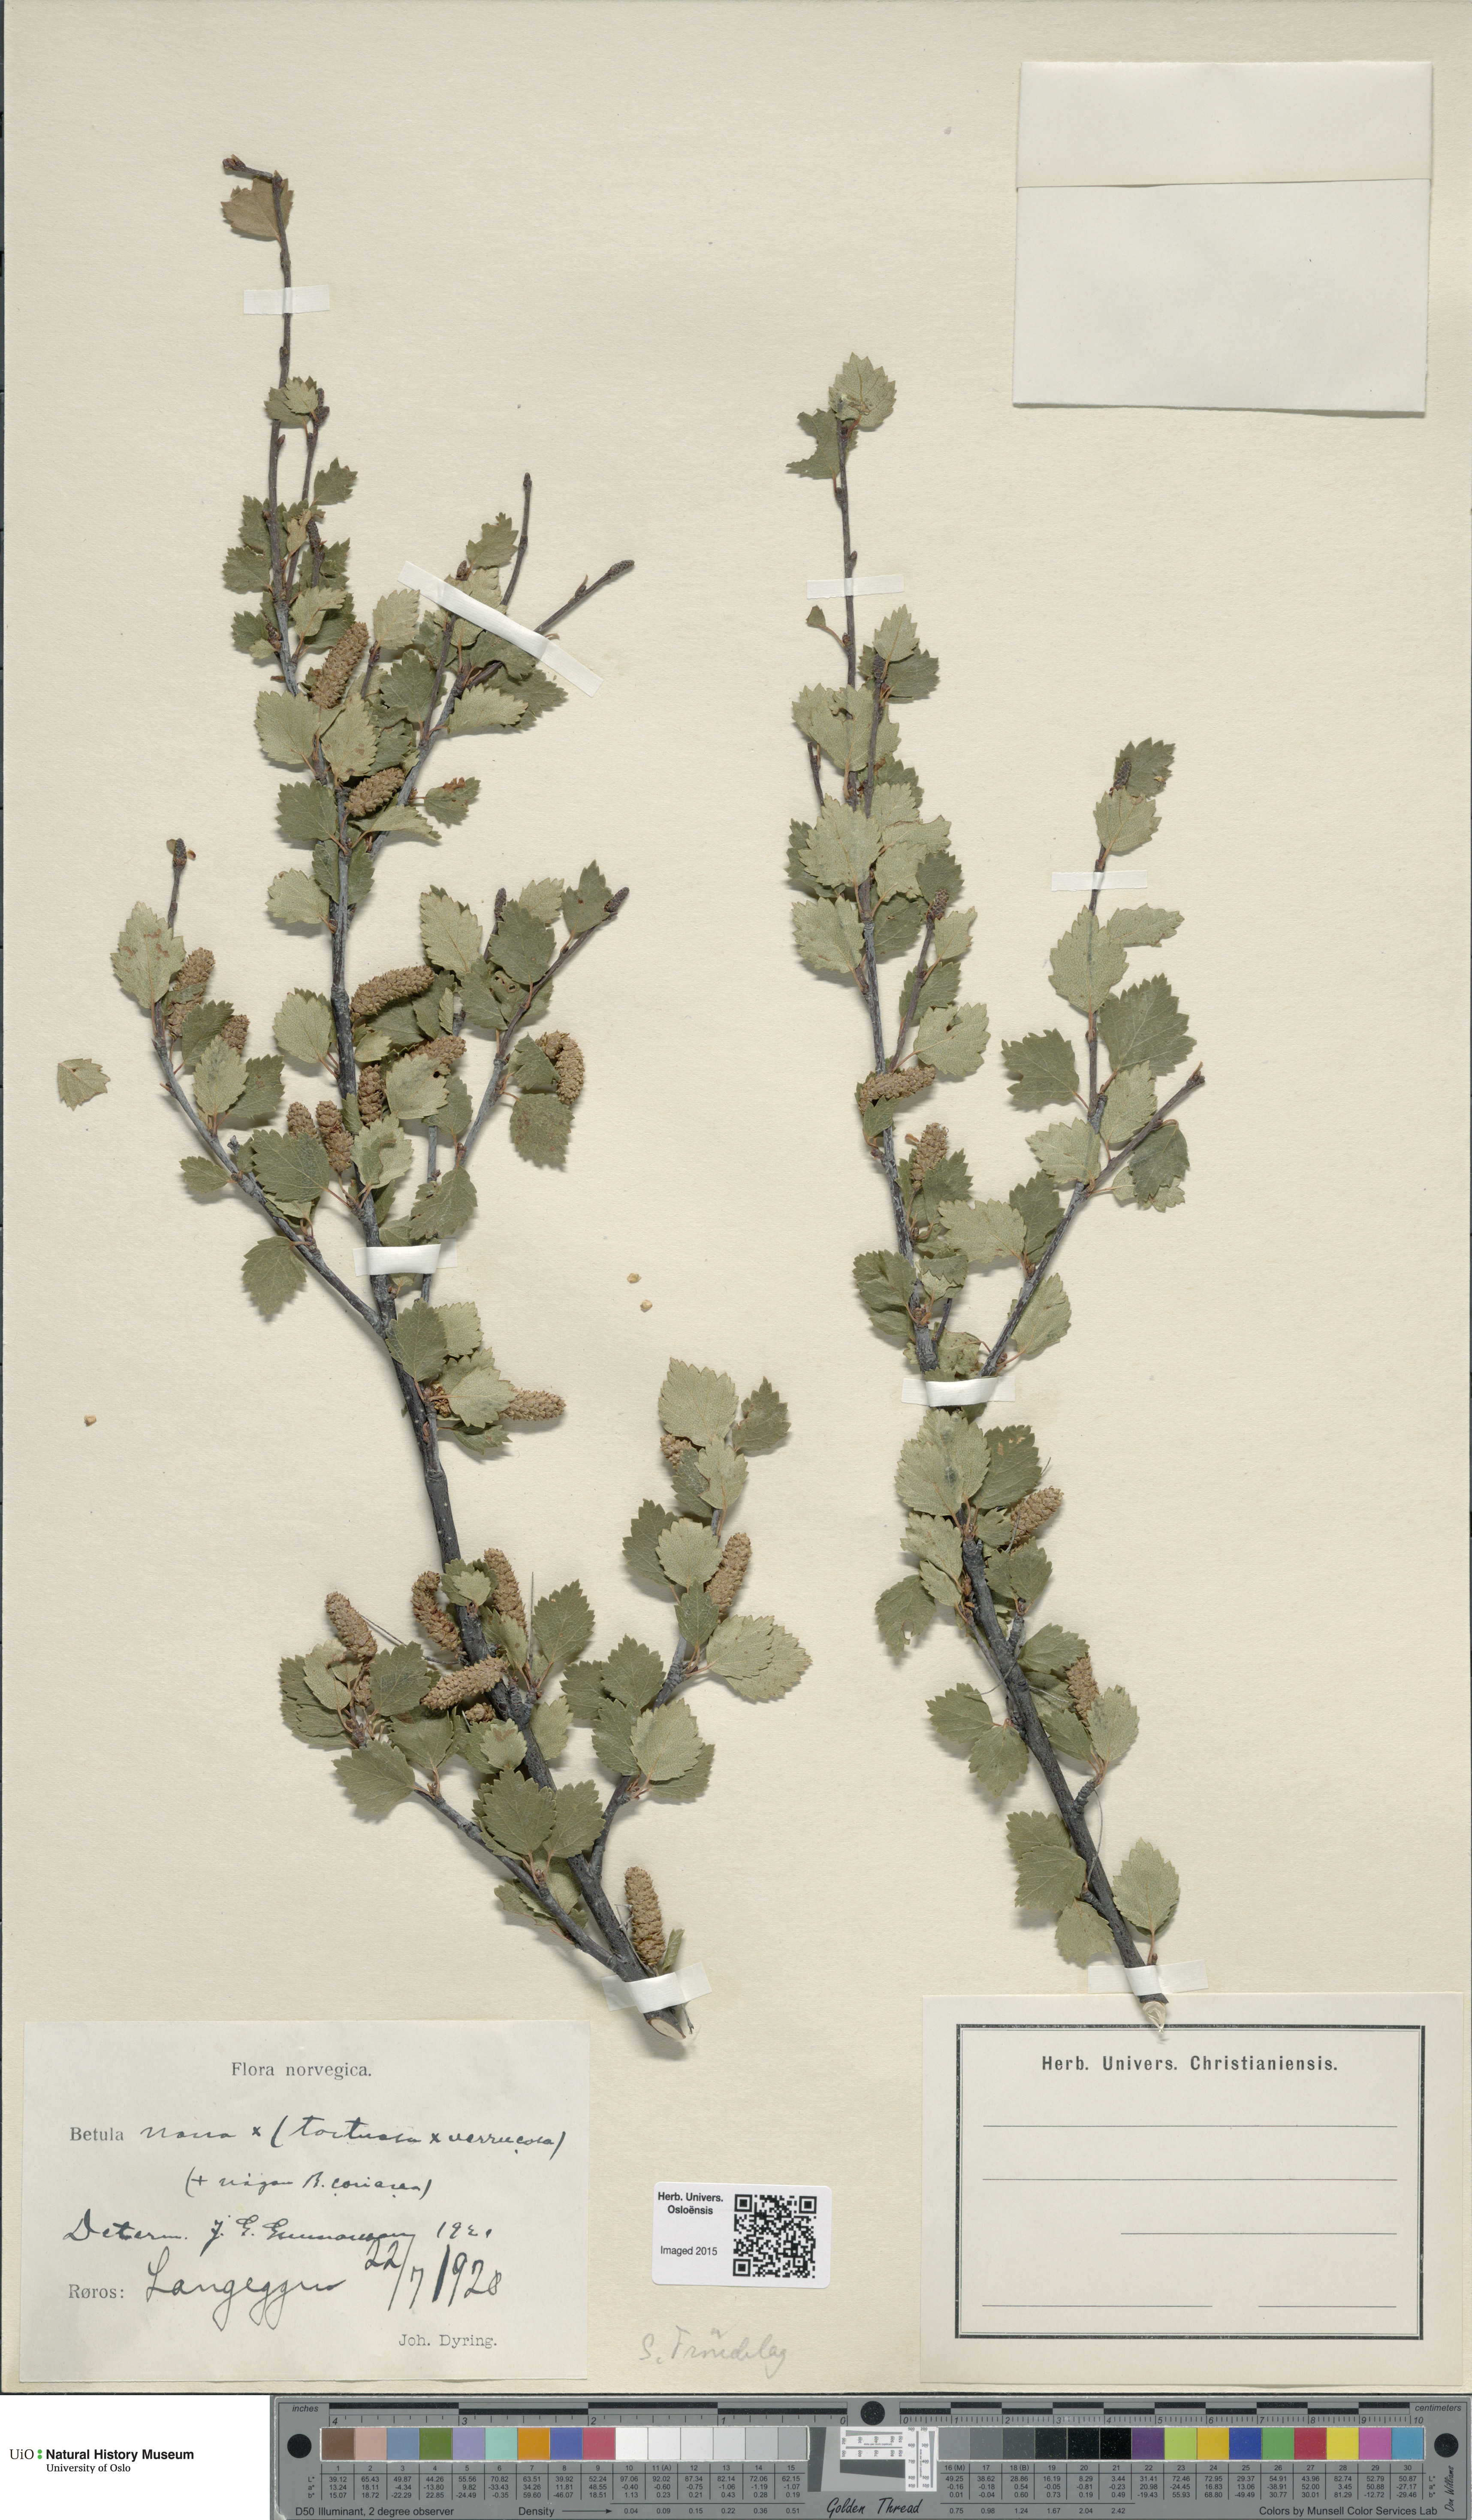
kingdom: Plantae
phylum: Tracheophyta
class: Magnoliopsida
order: Fagales
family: Betulaceae
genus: Betula
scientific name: Betula nana
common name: Arctic dwarf birch
